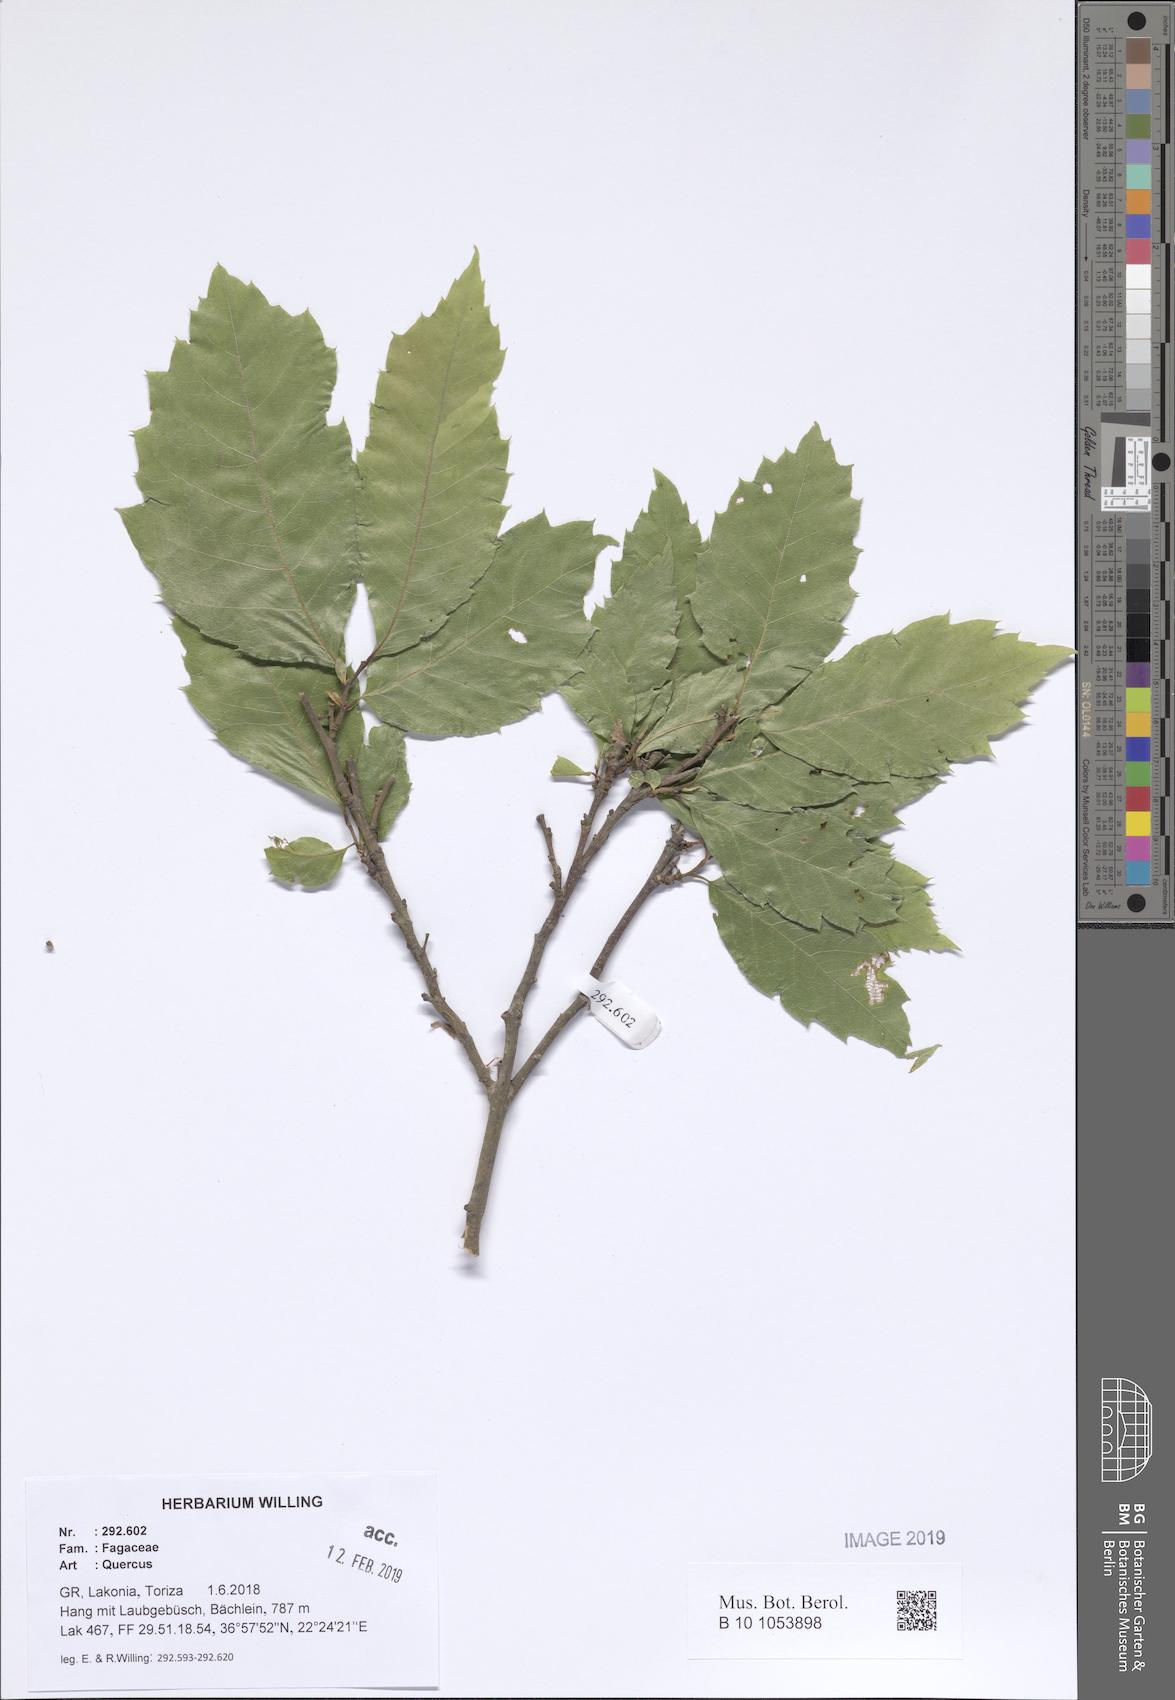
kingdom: Plantae
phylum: Tracheophyta
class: Magnoliopsida
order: Fagales
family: Fagaceae
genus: Quercus
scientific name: Quercus
